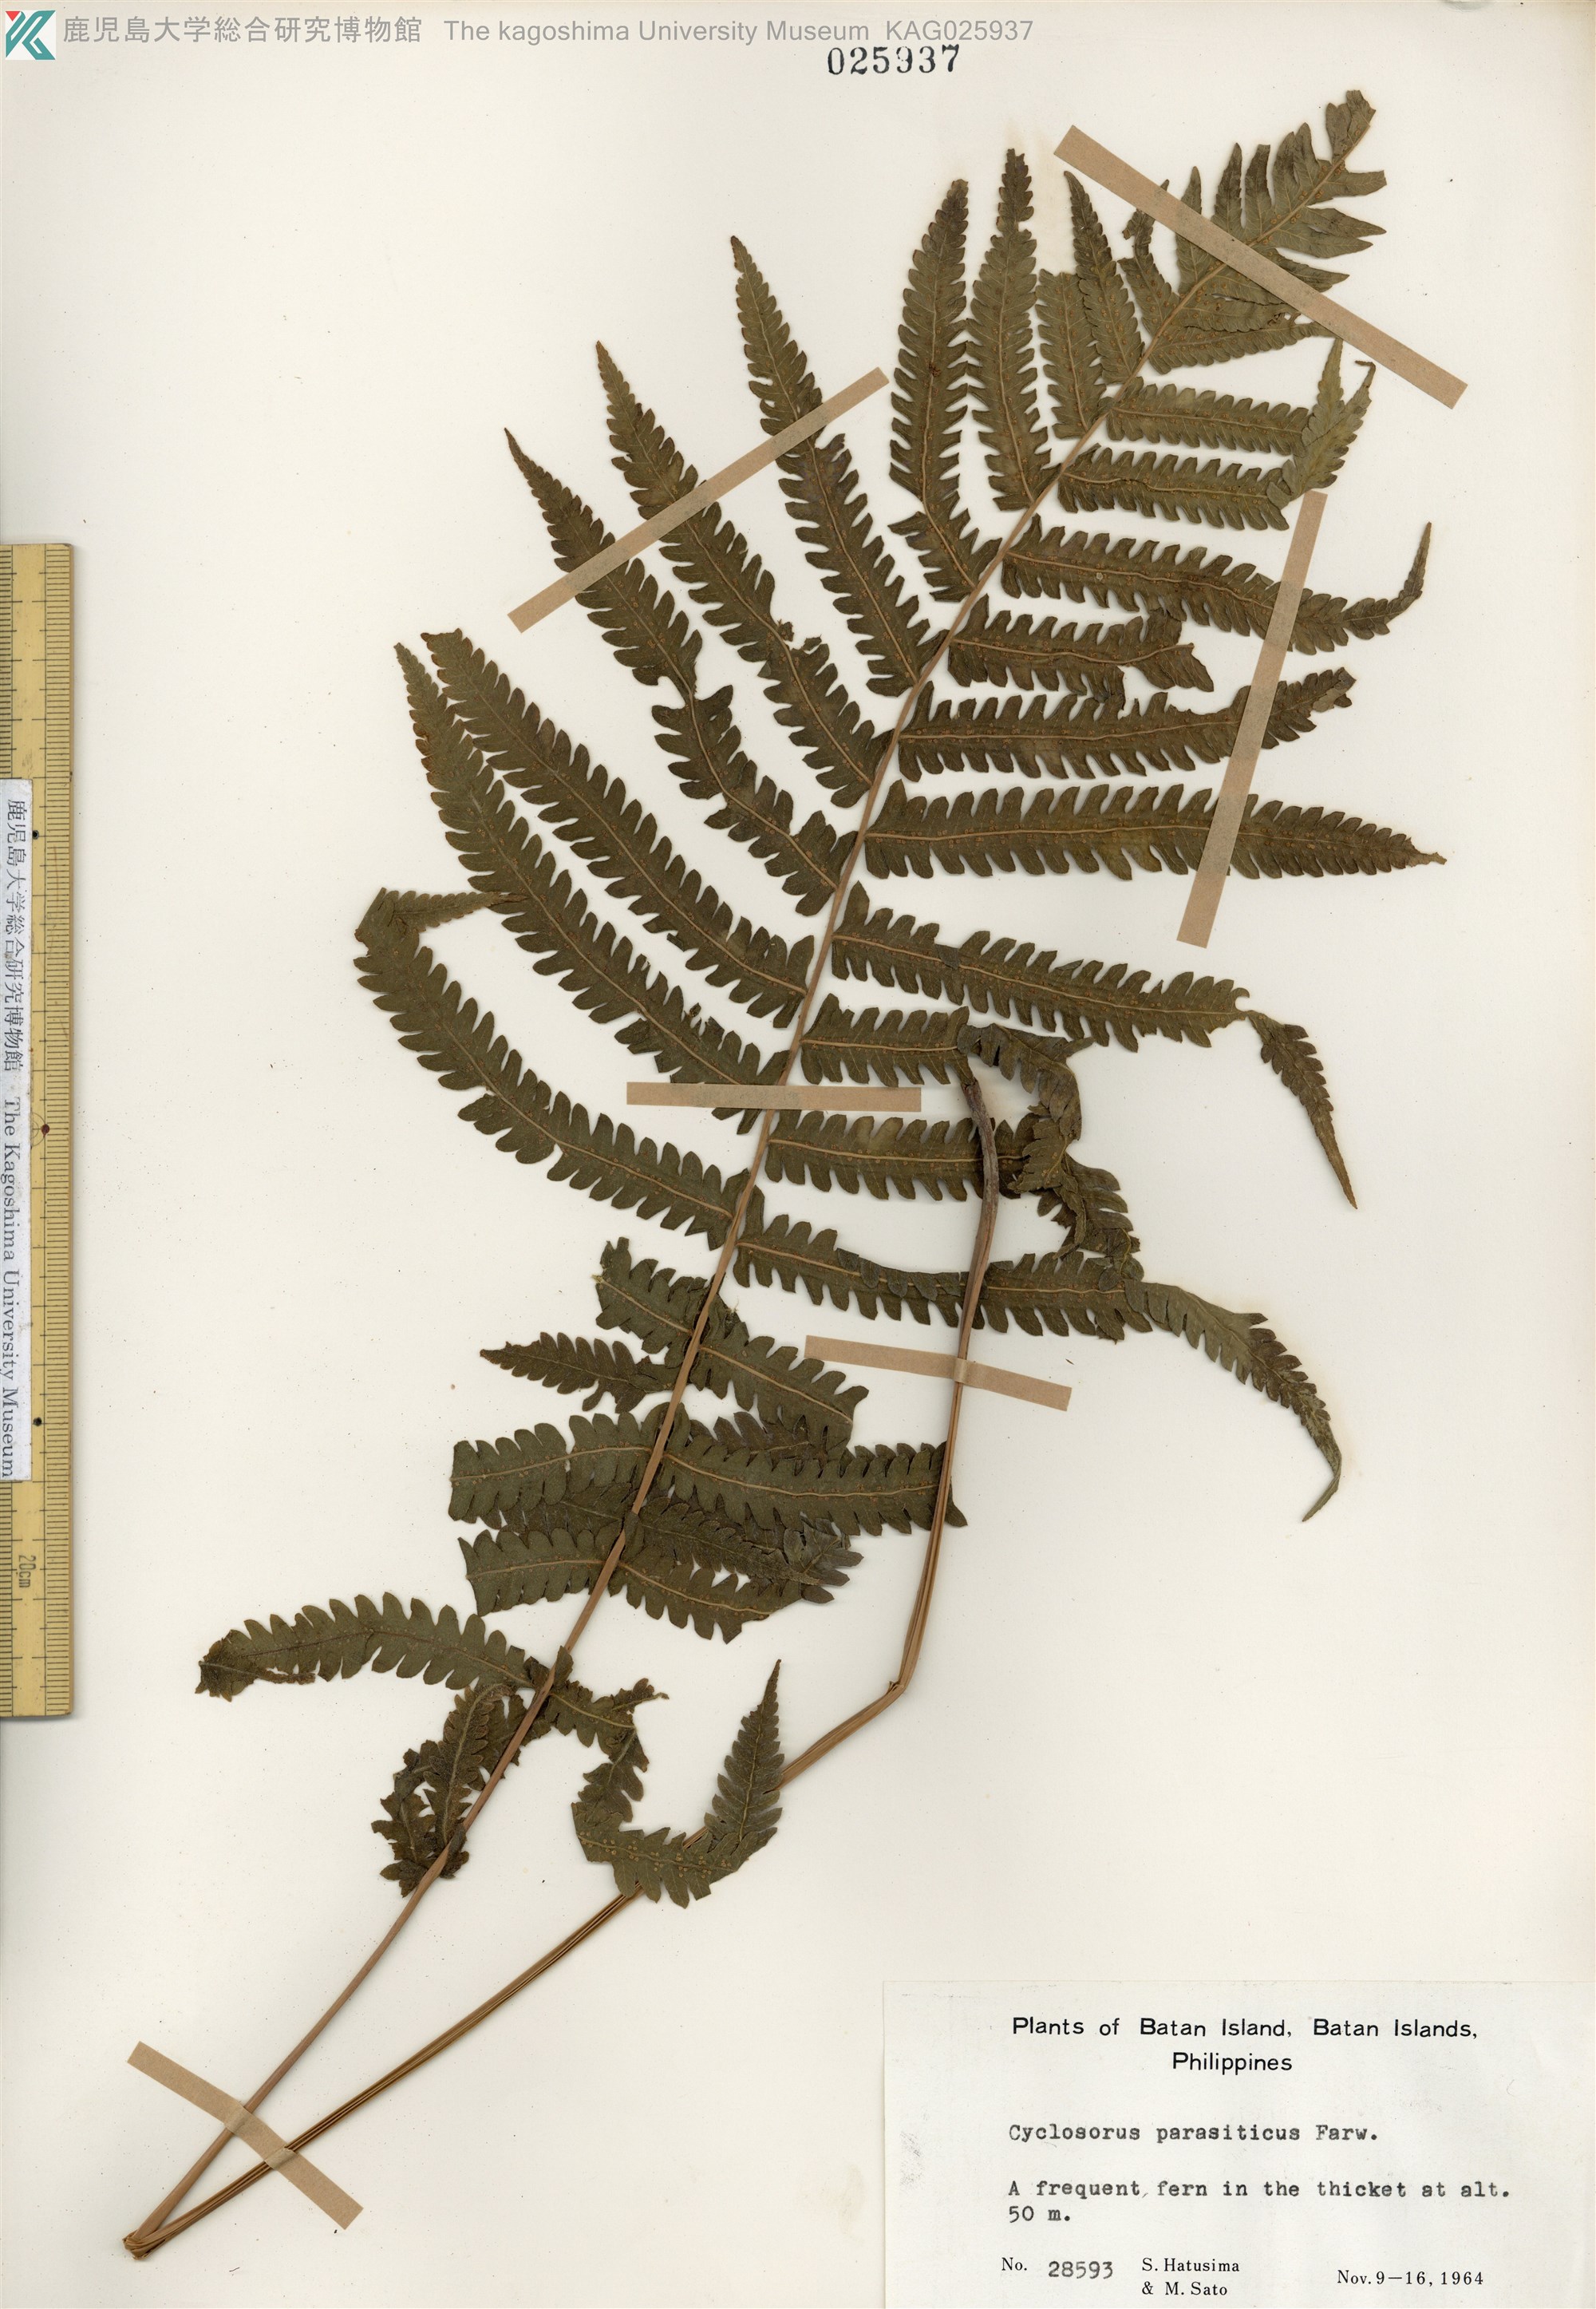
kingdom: Plantae
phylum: Tracheophyta
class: Polypodiopsida
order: Polypodiales
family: Thelypteridaceae
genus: Christella
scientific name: Christella parasitica
